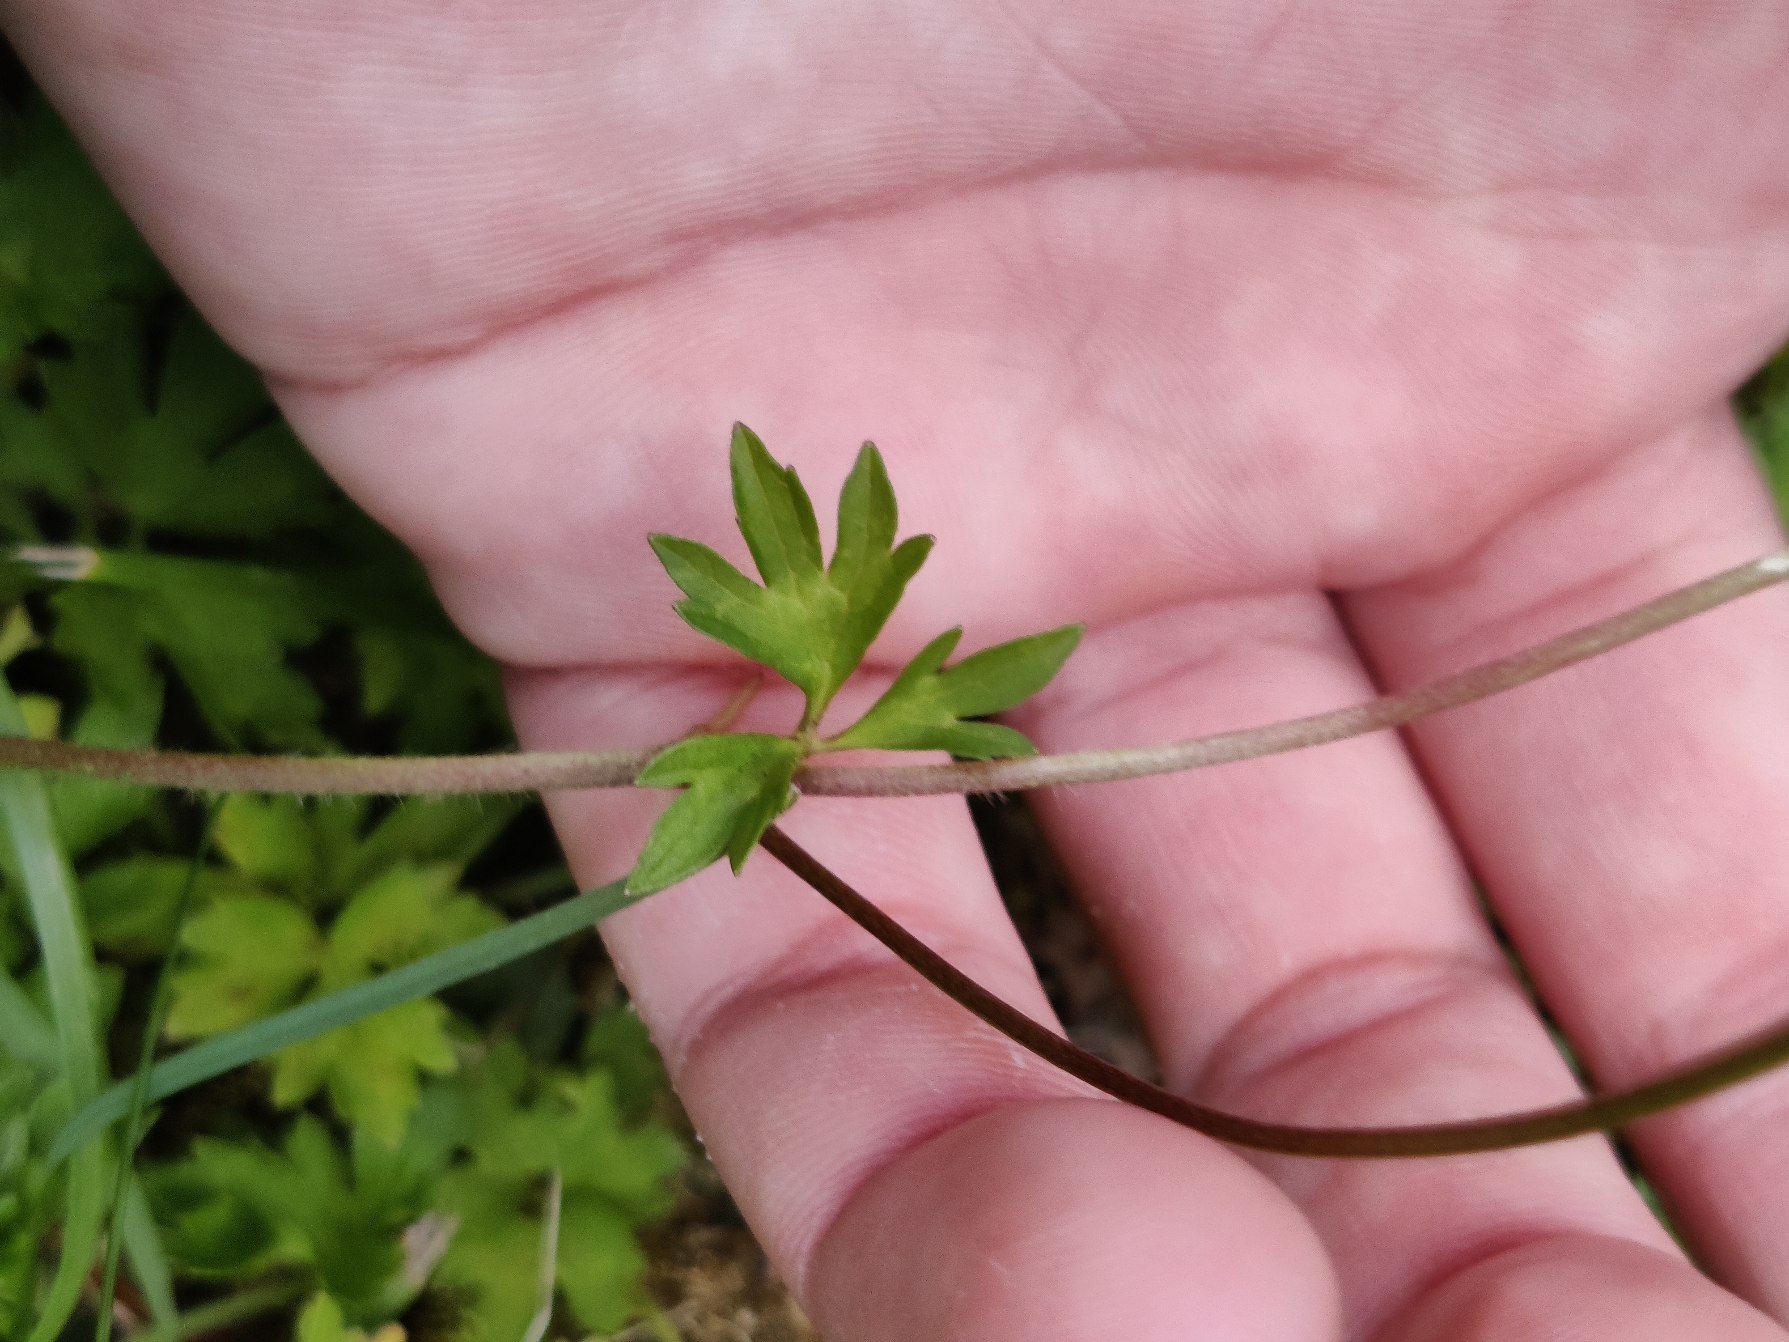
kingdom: Plantae
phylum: Tracheophyta
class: Magnoliopsida
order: Ranunculales
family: Ranunculaceae
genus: Ranunculus
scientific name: Ranunculus repens
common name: Lav ranunkel
